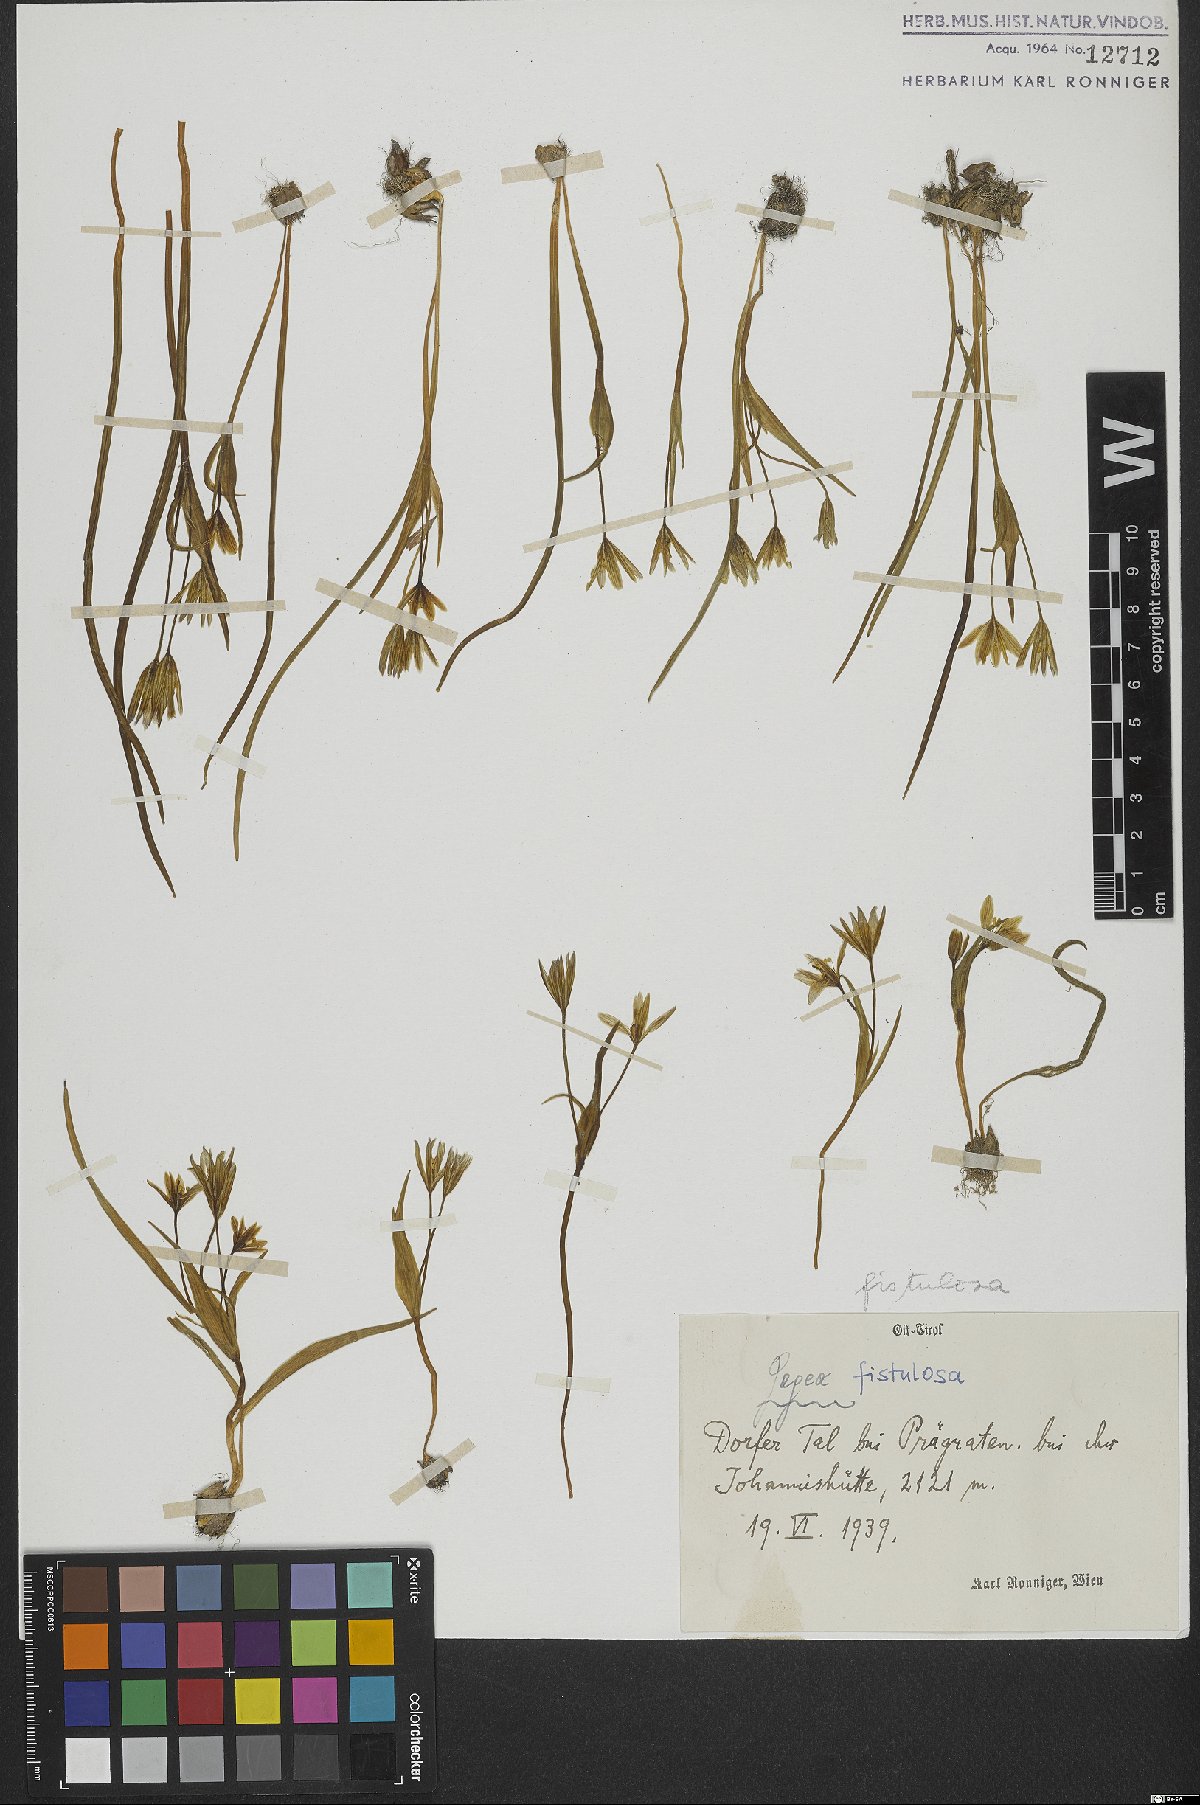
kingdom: Plantae
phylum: Tracheophyta
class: Liliopsida
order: Liliales
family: Liliaceae
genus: Gagea
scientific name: Gagea fragifera
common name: Lily
